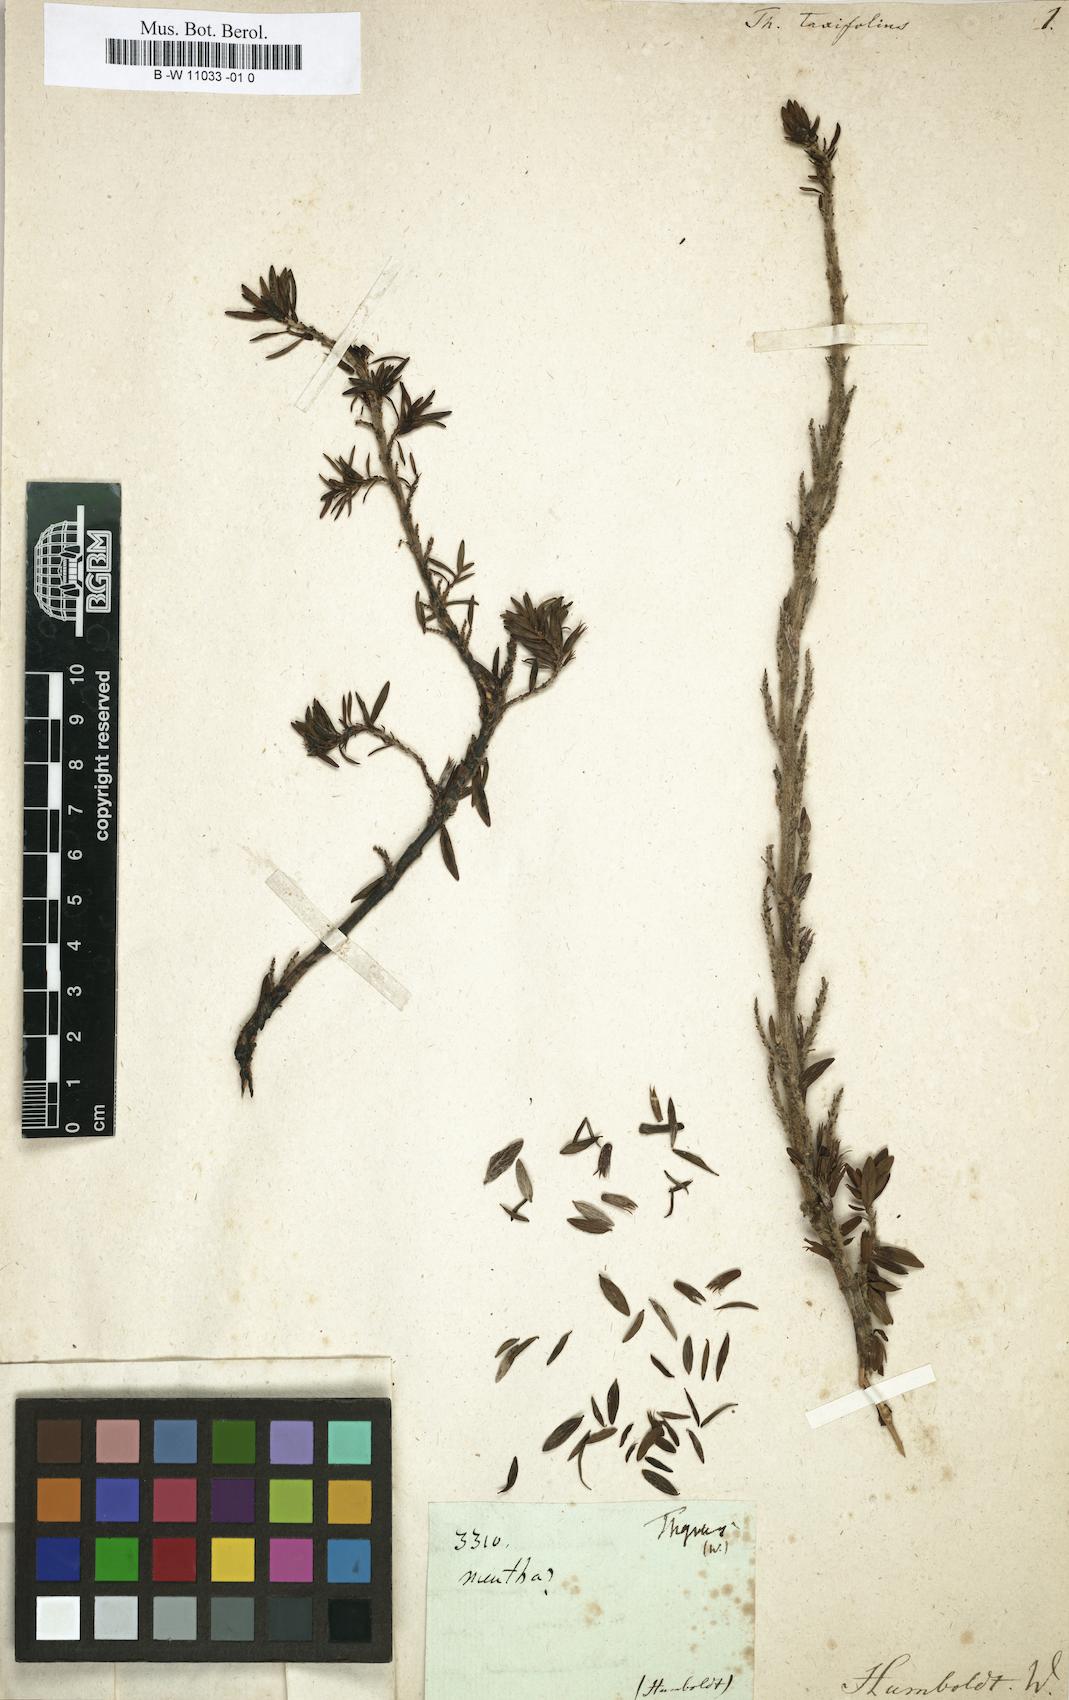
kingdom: Plantae
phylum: Tracheophyta
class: Magnoliopsida
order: Lamiales
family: Lamiaceae
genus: Clinopodium
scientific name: Clinopodium taxifolium
